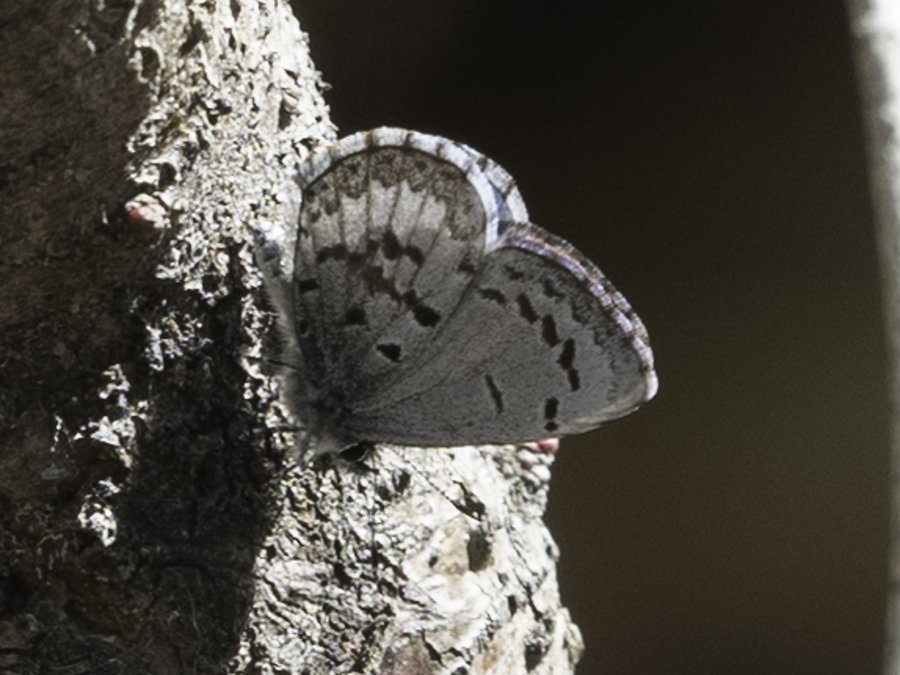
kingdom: Animalia
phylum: Arthropoda
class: Insecta
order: Lepidoptera
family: Lycaenidae
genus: Celastrina
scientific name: Celastrina lucia
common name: Northern Spring Azure
